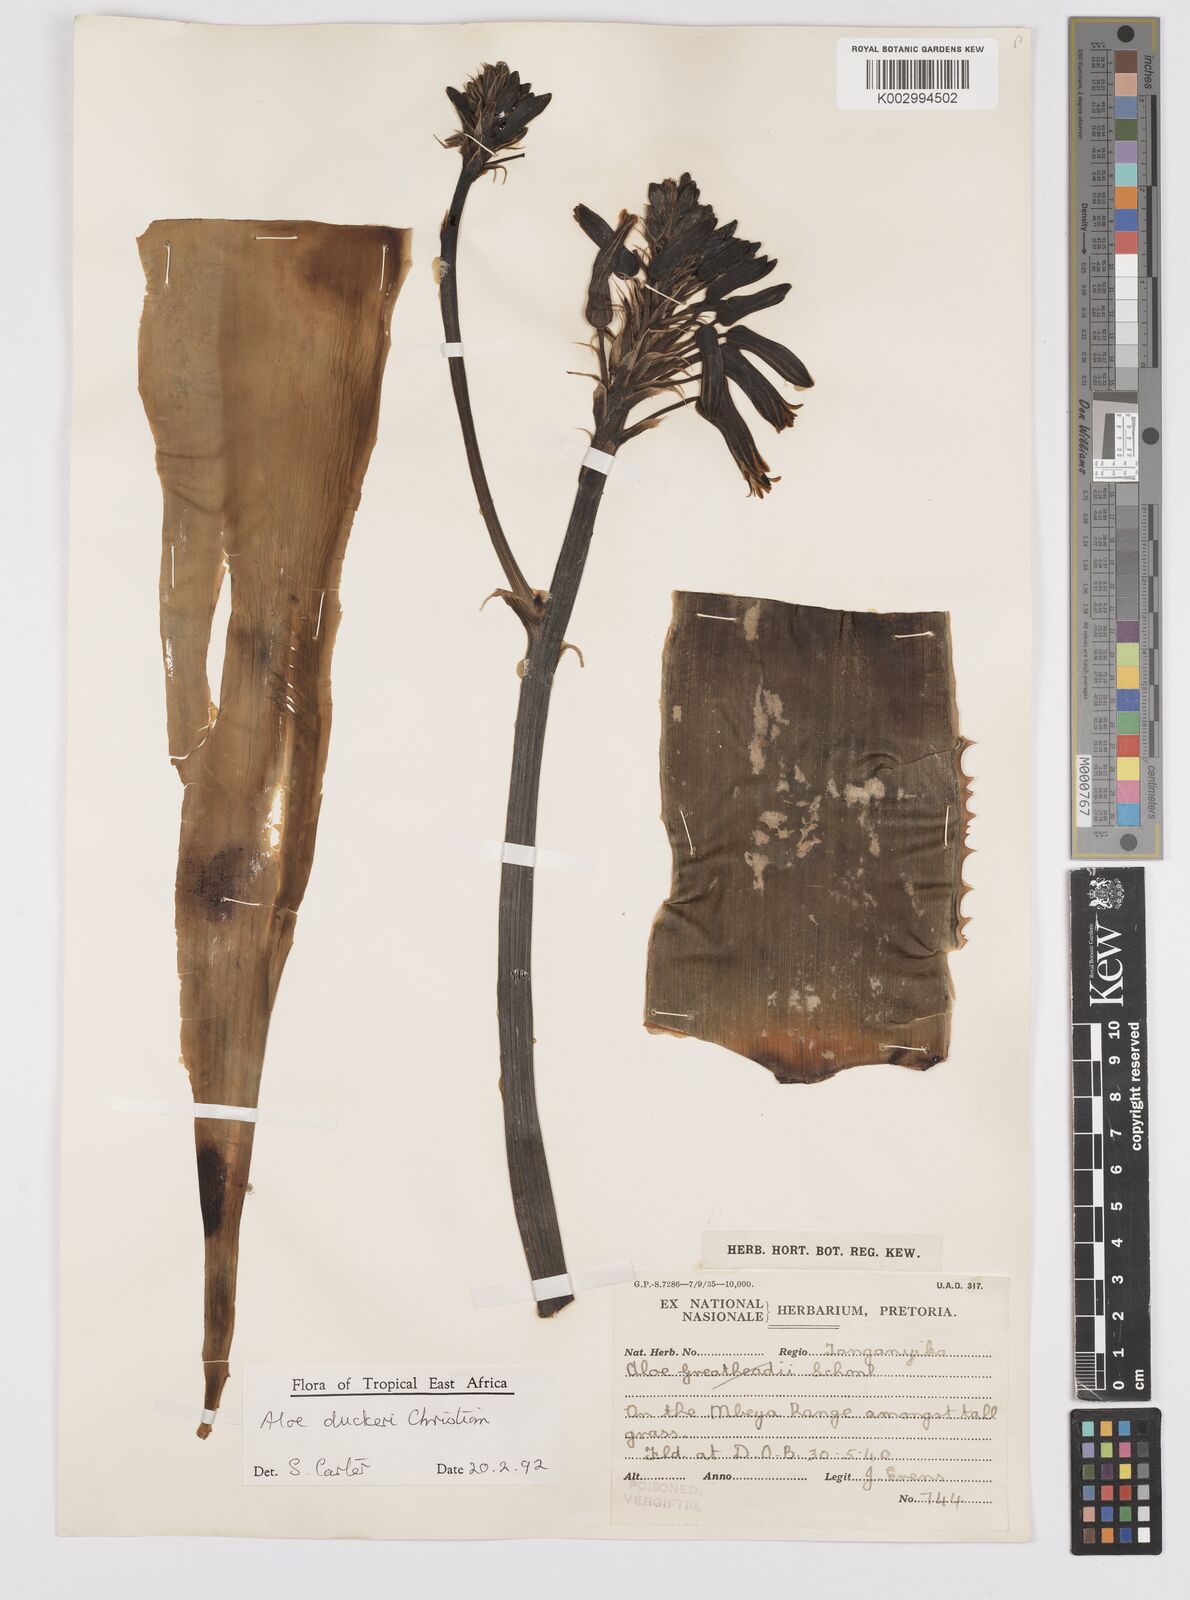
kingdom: Plantae
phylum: Tracheophyta
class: Liliopsida
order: Asparagales
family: Asphodelaceae
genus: Aloe
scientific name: Aloe duckeri
